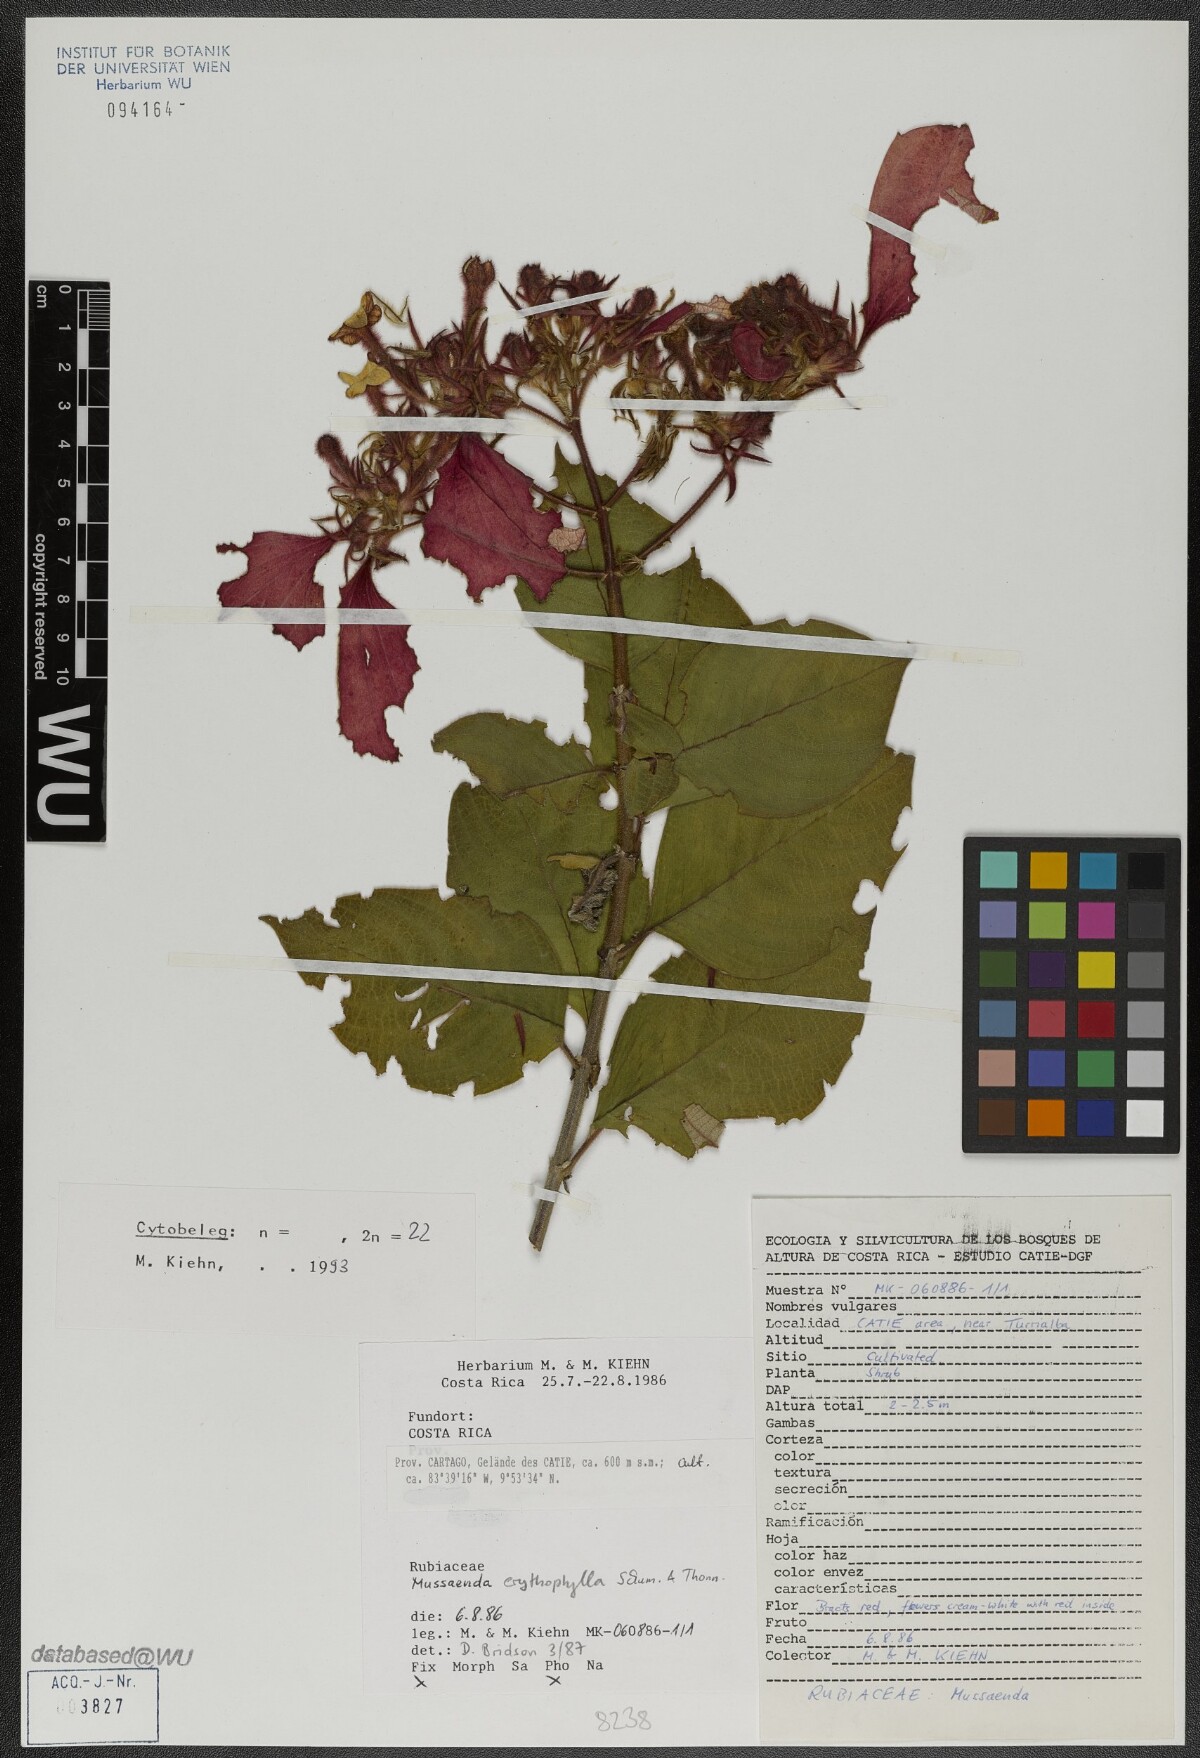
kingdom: Plantae
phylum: Tracheophyta
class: Magnoliopsida
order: Gentianales
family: Rubiaceae
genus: Mussaenda
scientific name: Mussaenda erythrophylla
